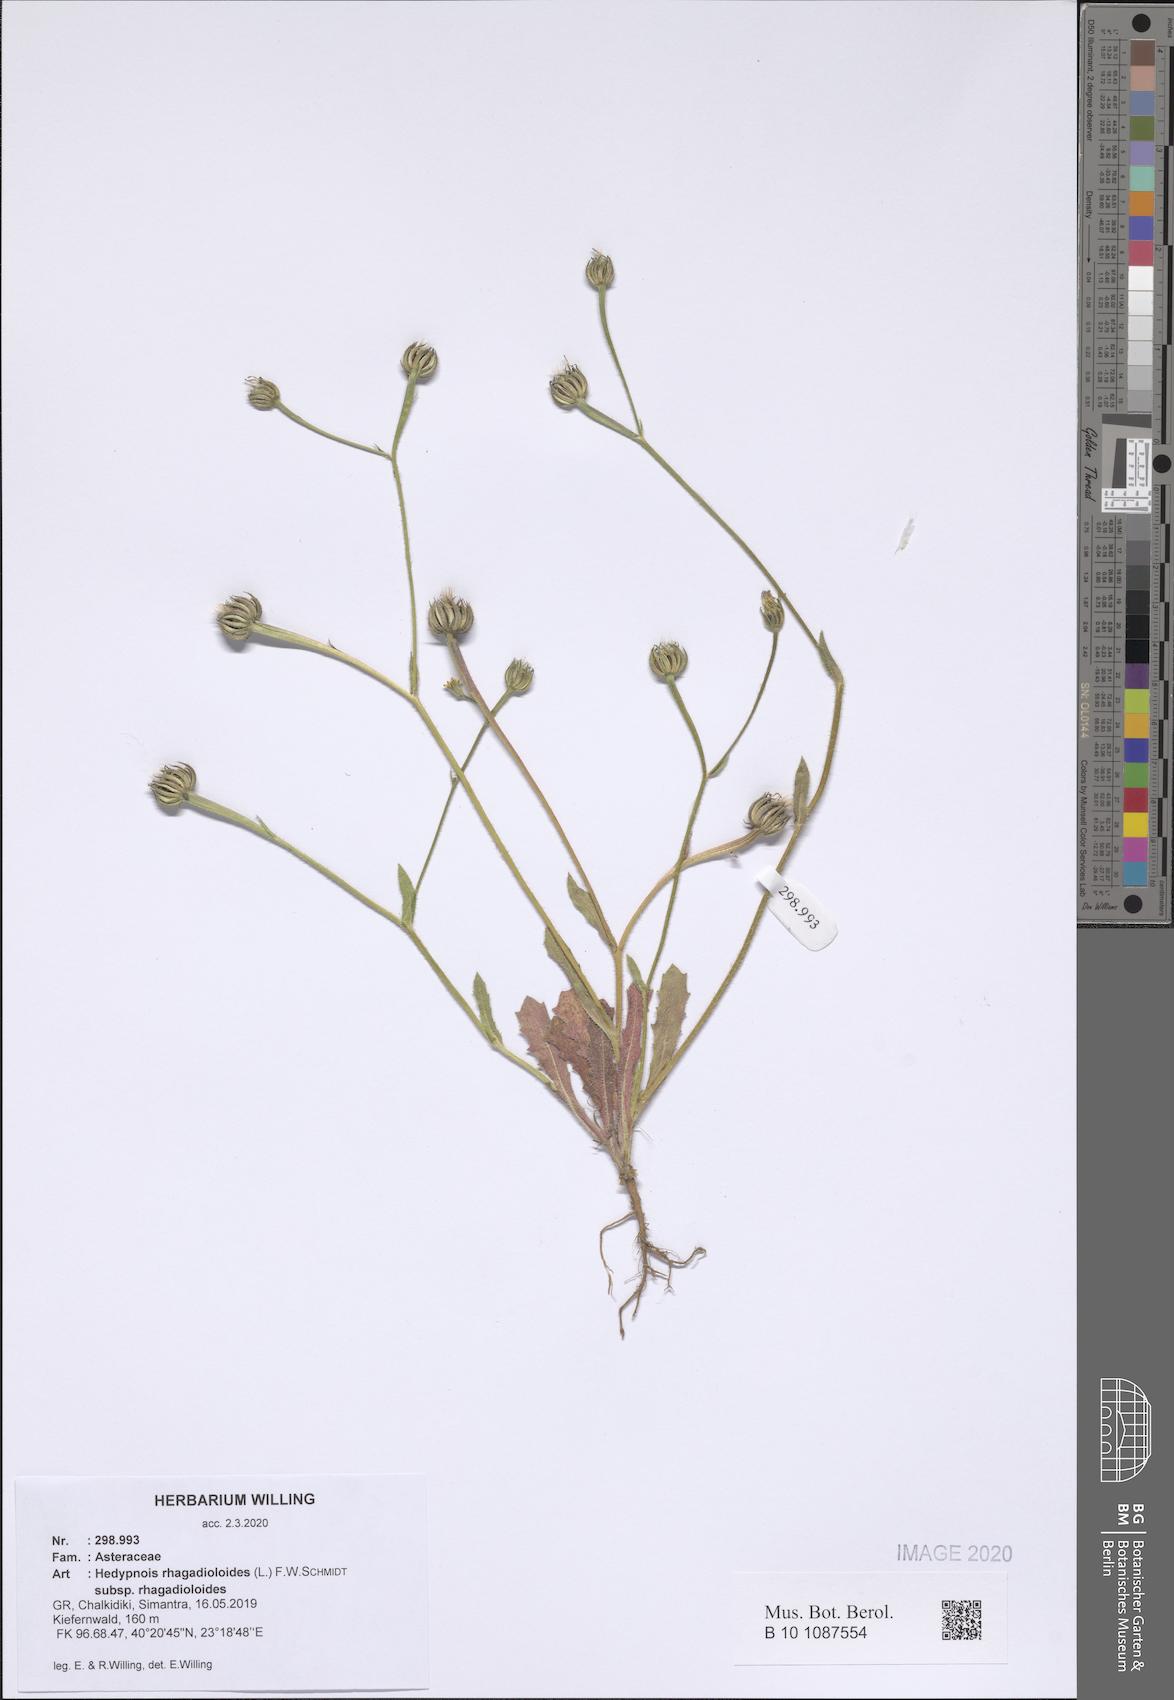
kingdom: Plantae
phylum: Tracheophyta
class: Magnoliopsida
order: Asterales
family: Asteraceae
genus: Hedypnois
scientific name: Hedypnois rhagadioloides
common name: Cretan weed
